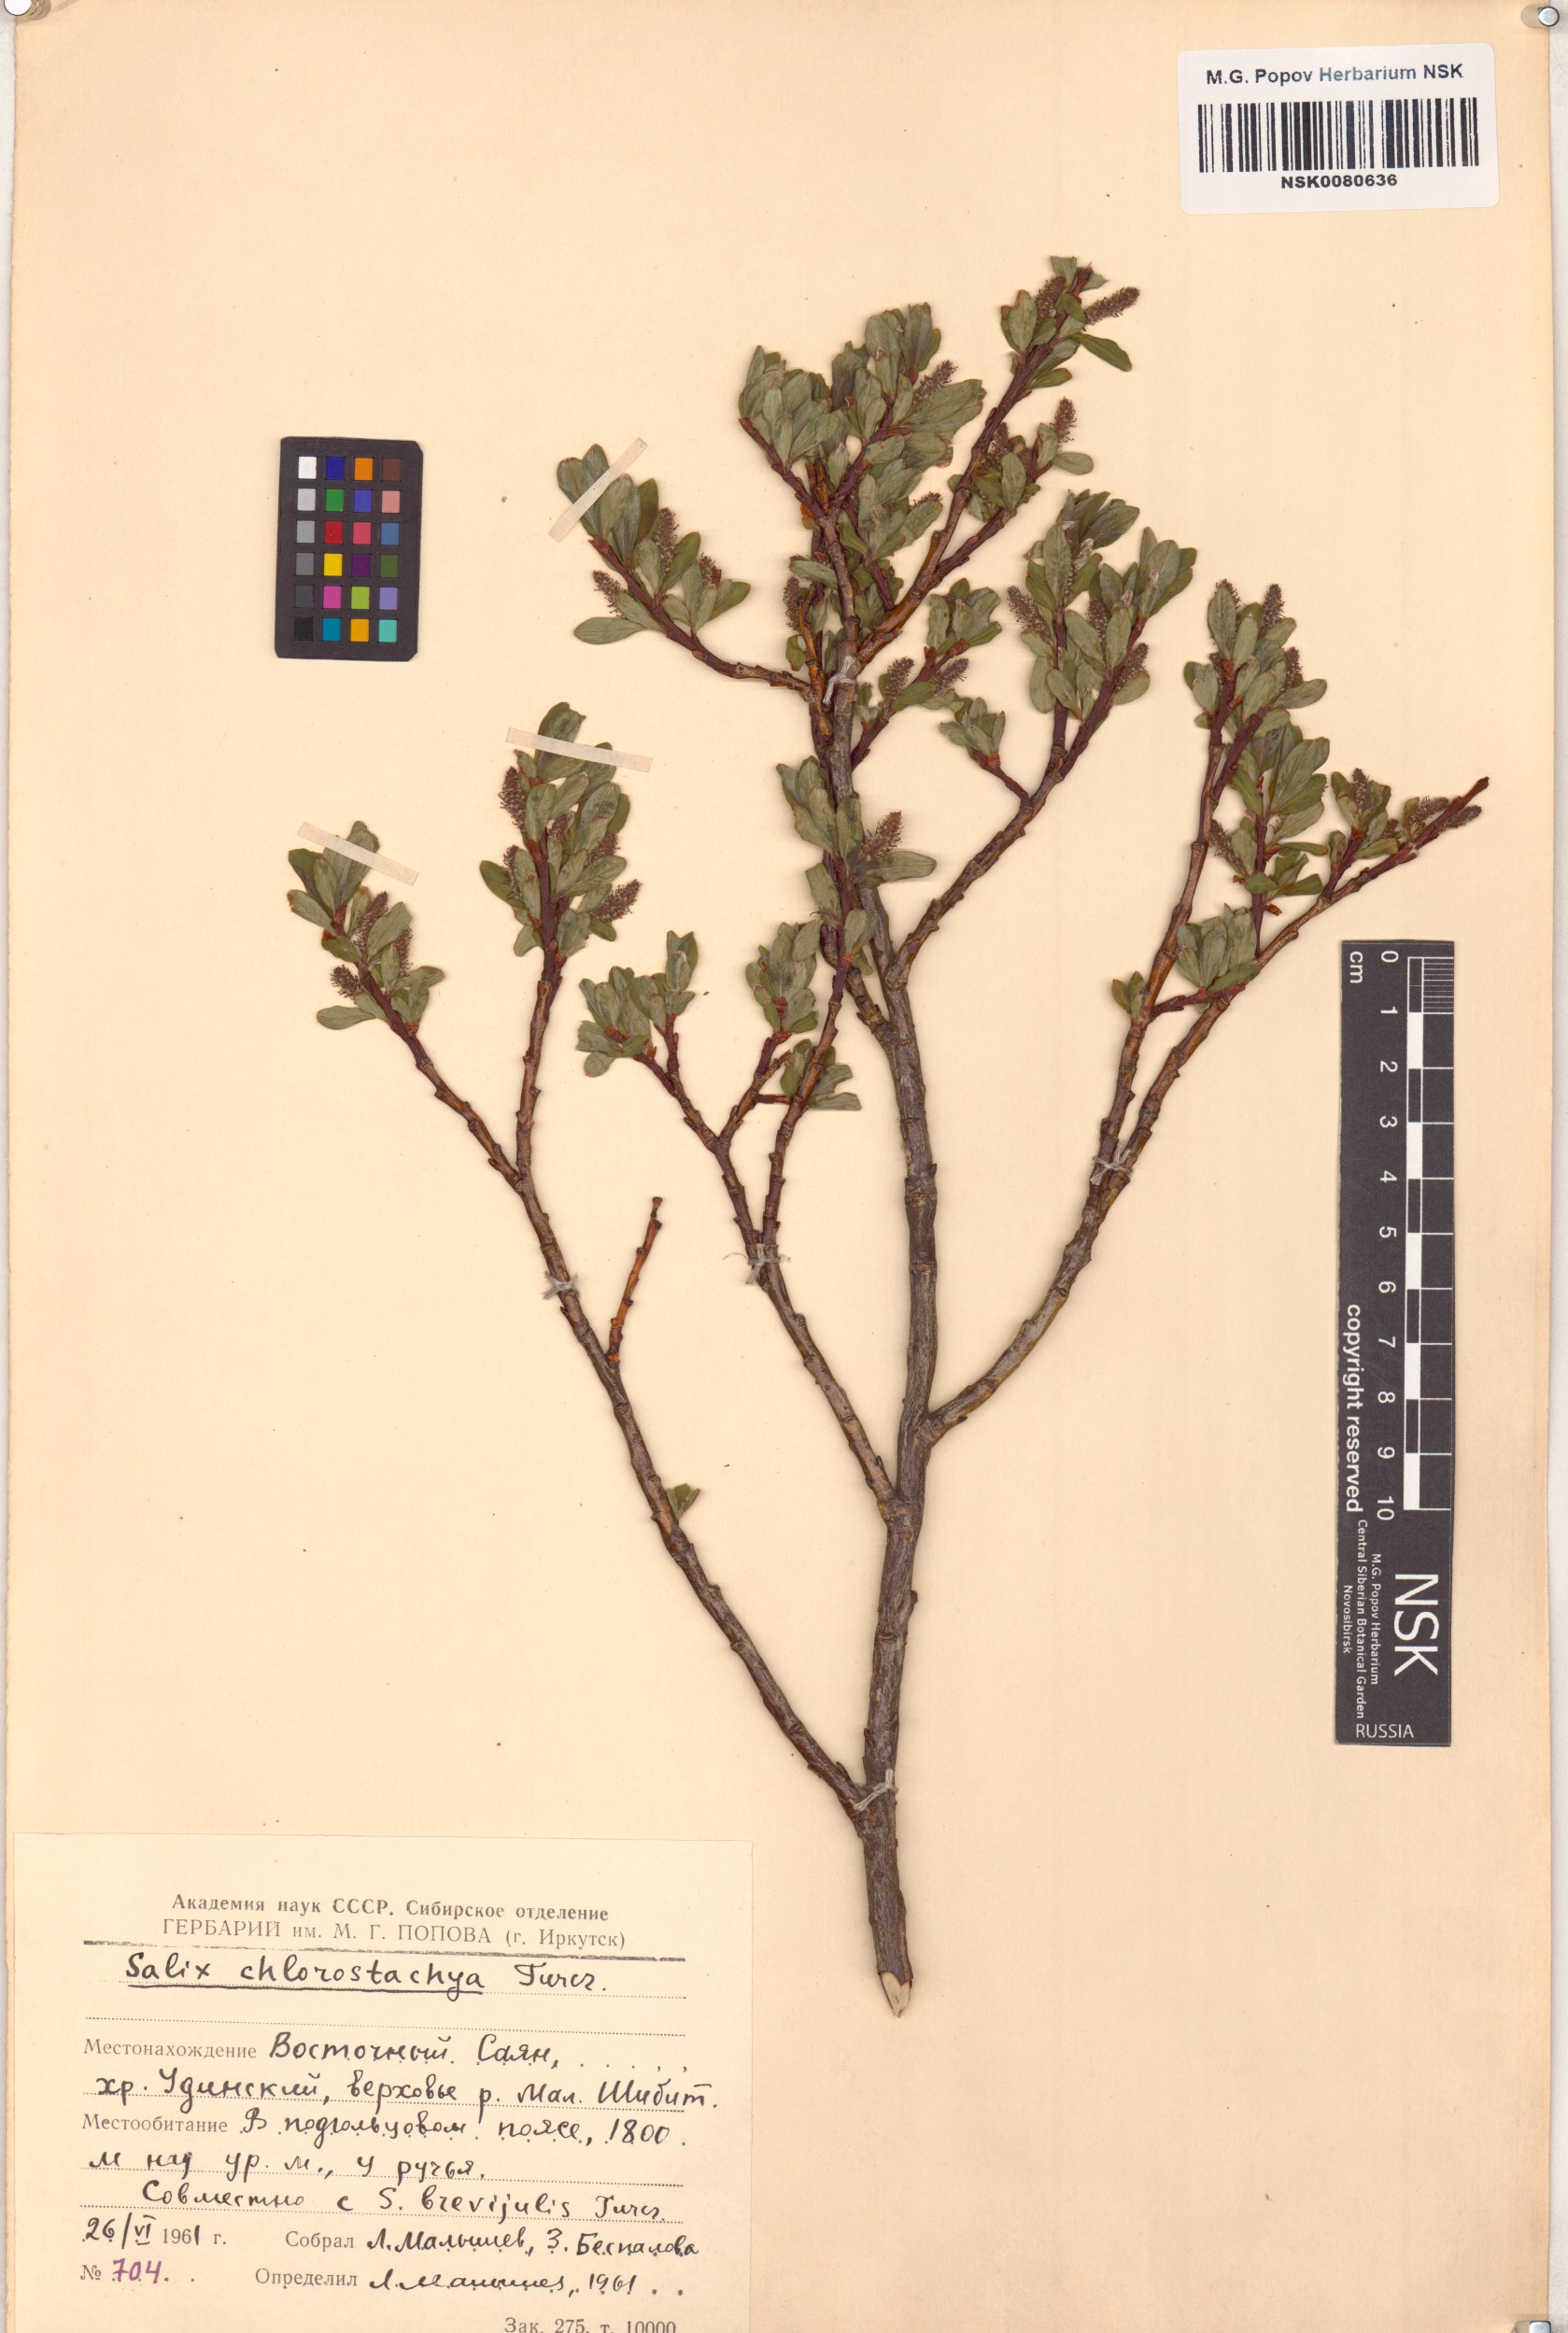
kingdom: Plantae
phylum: Tracheophyta
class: Magnoliopsida
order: Malpighiales
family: Salicaceae
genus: Salix
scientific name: Salix rhamnifolia
